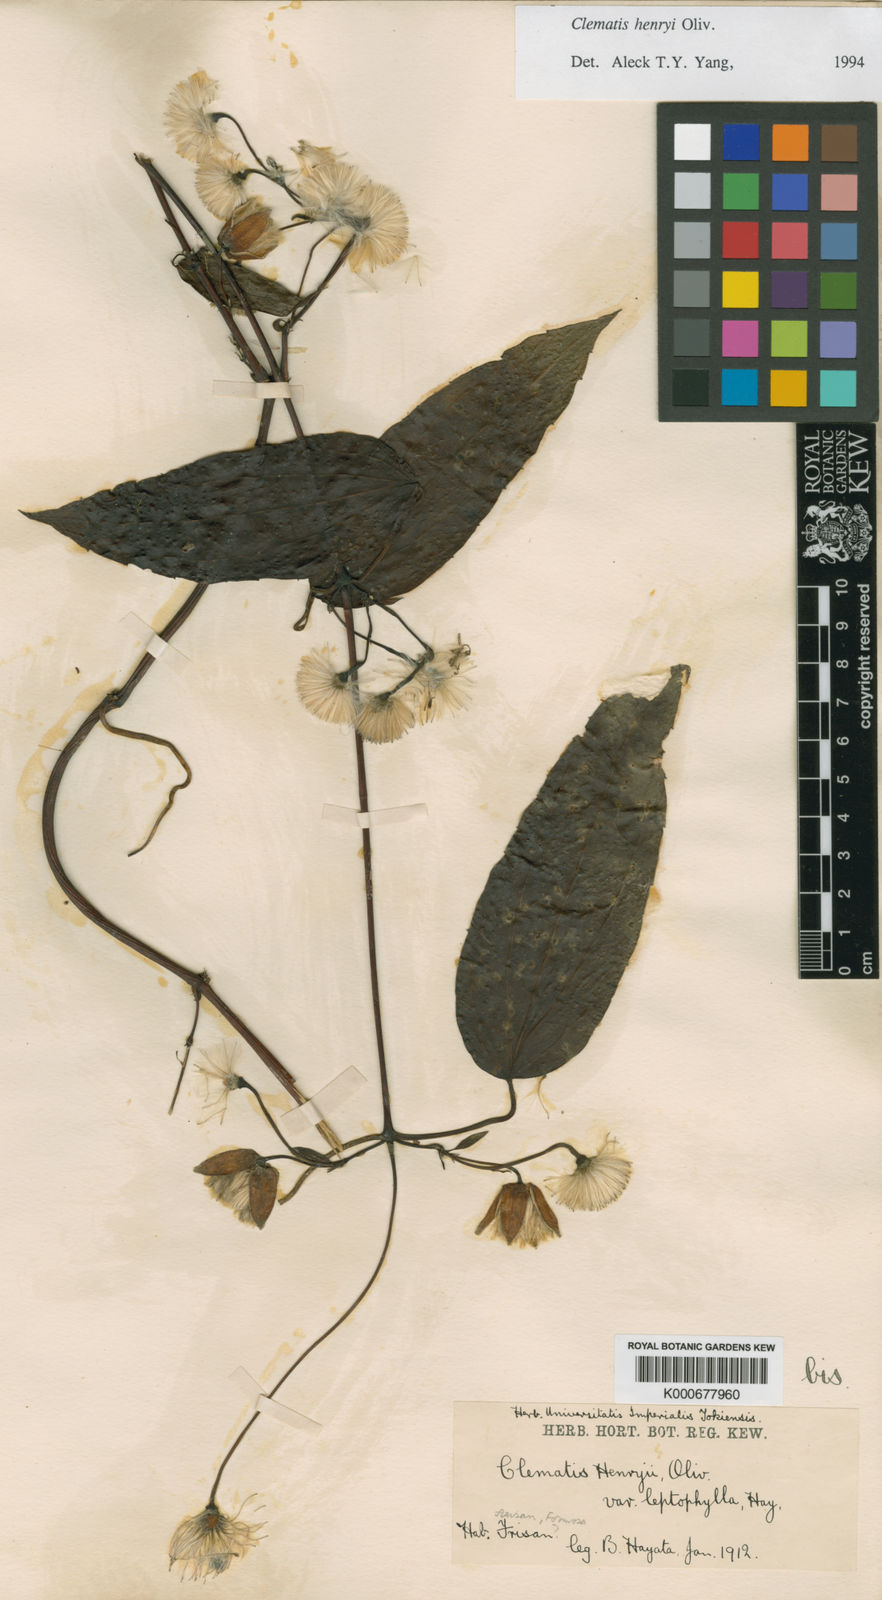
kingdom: Plantae
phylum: Tracheophyta
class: Magnoliopsida
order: Ranunculales
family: Ranunculaceae
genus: Clematis
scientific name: Clematis
